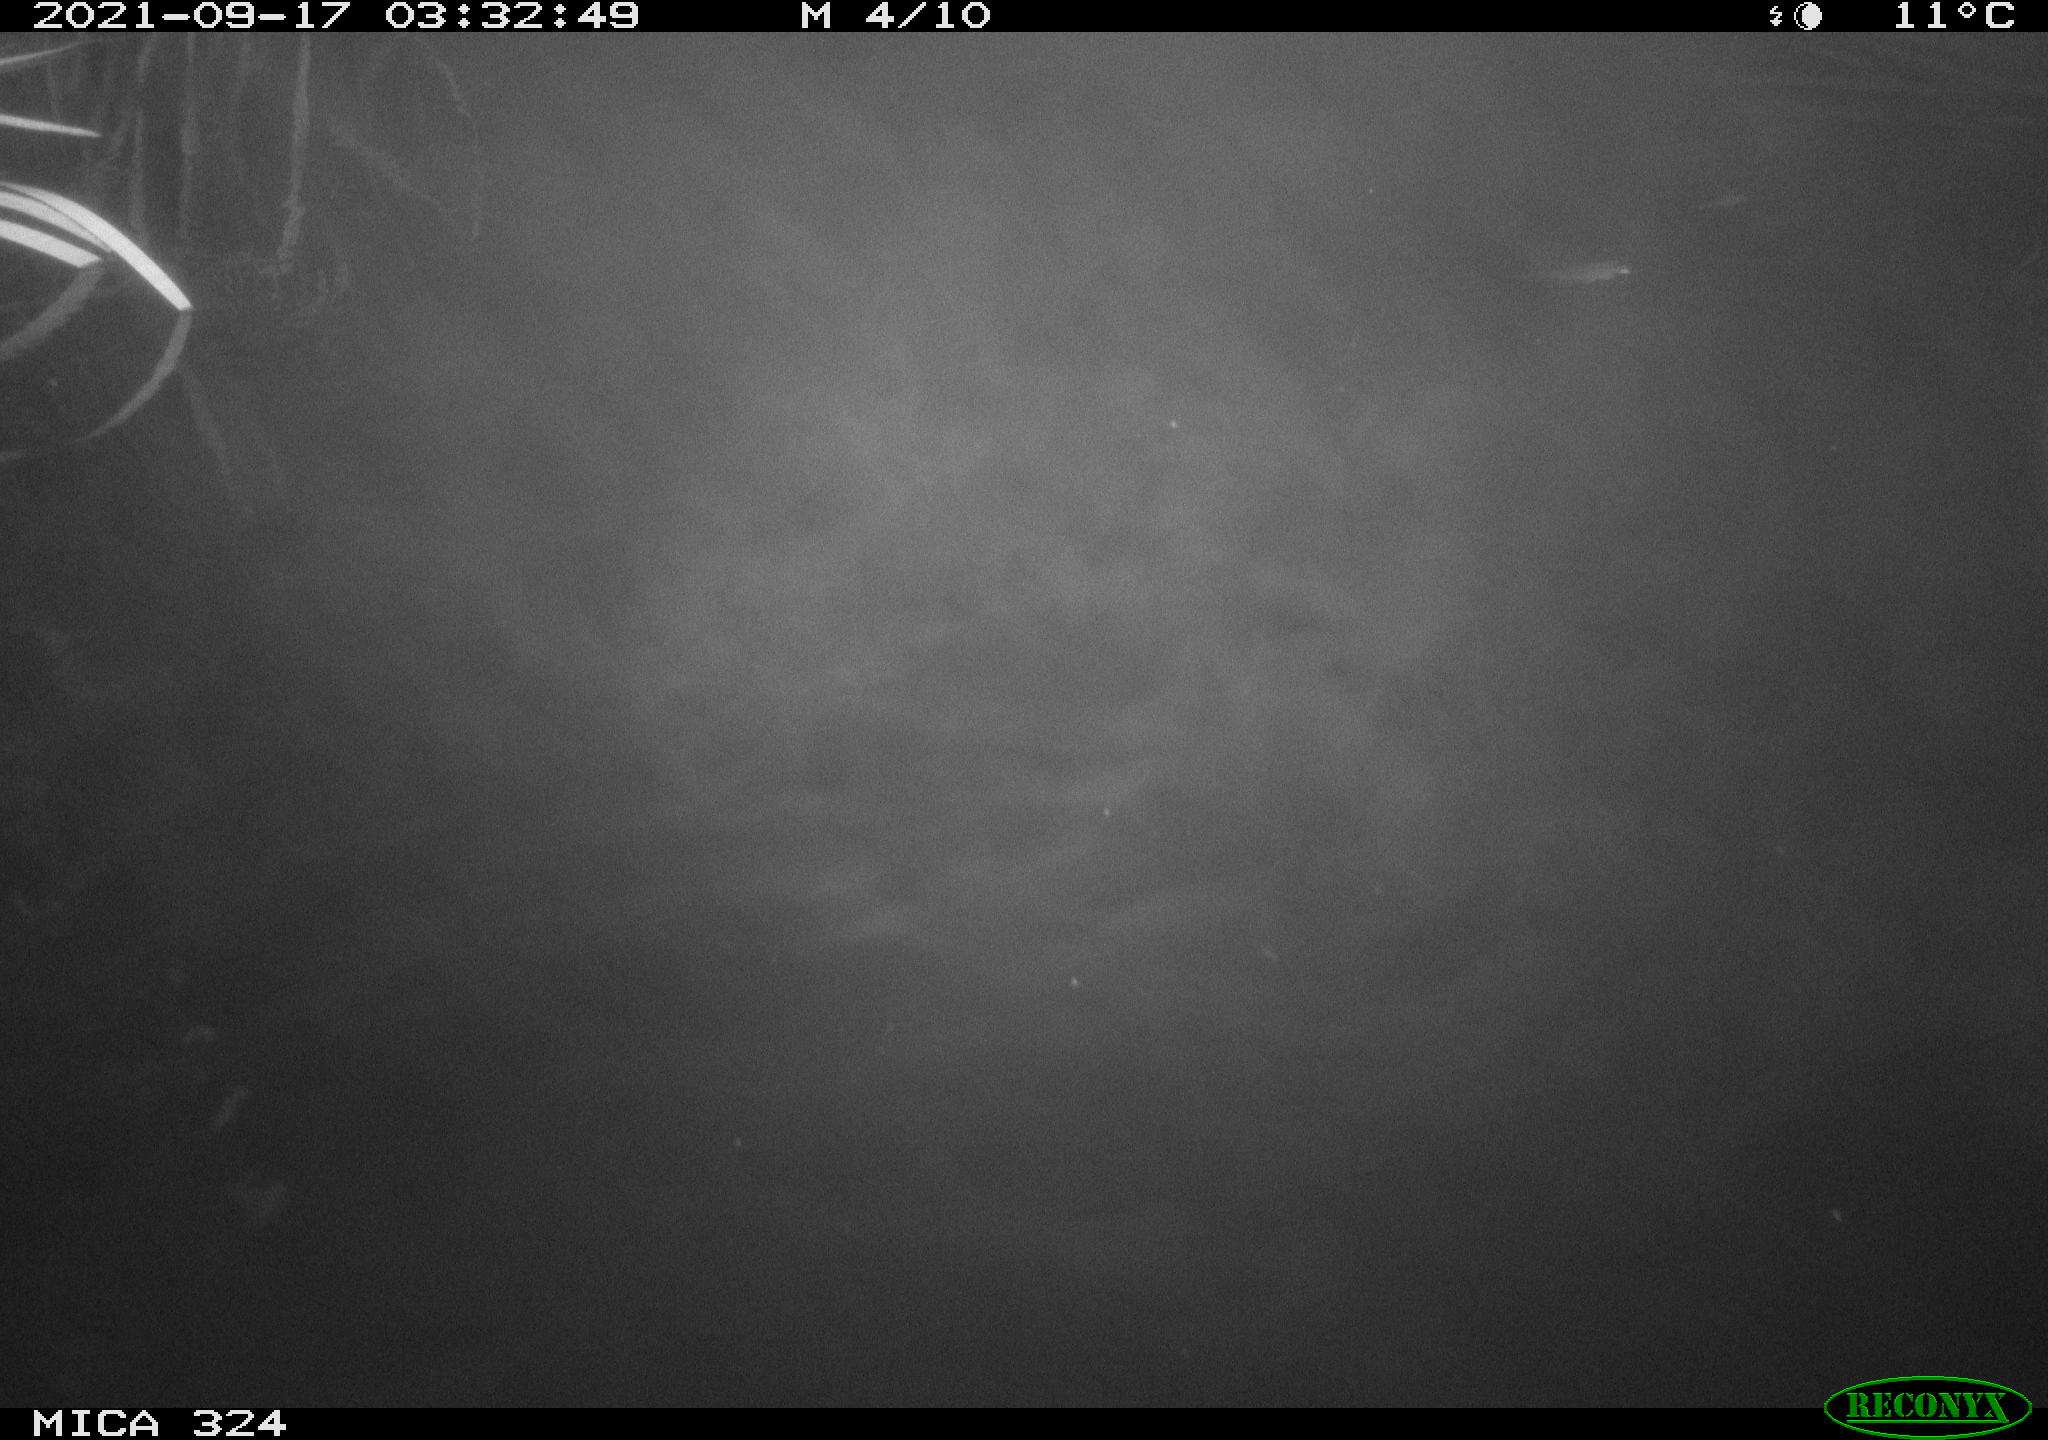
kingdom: Animalia
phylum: Chordata
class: Mammalia
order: Rodentia
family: Cricetidae
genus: Ondatra
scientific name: Ondatra zibethicus
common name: Muskrat
